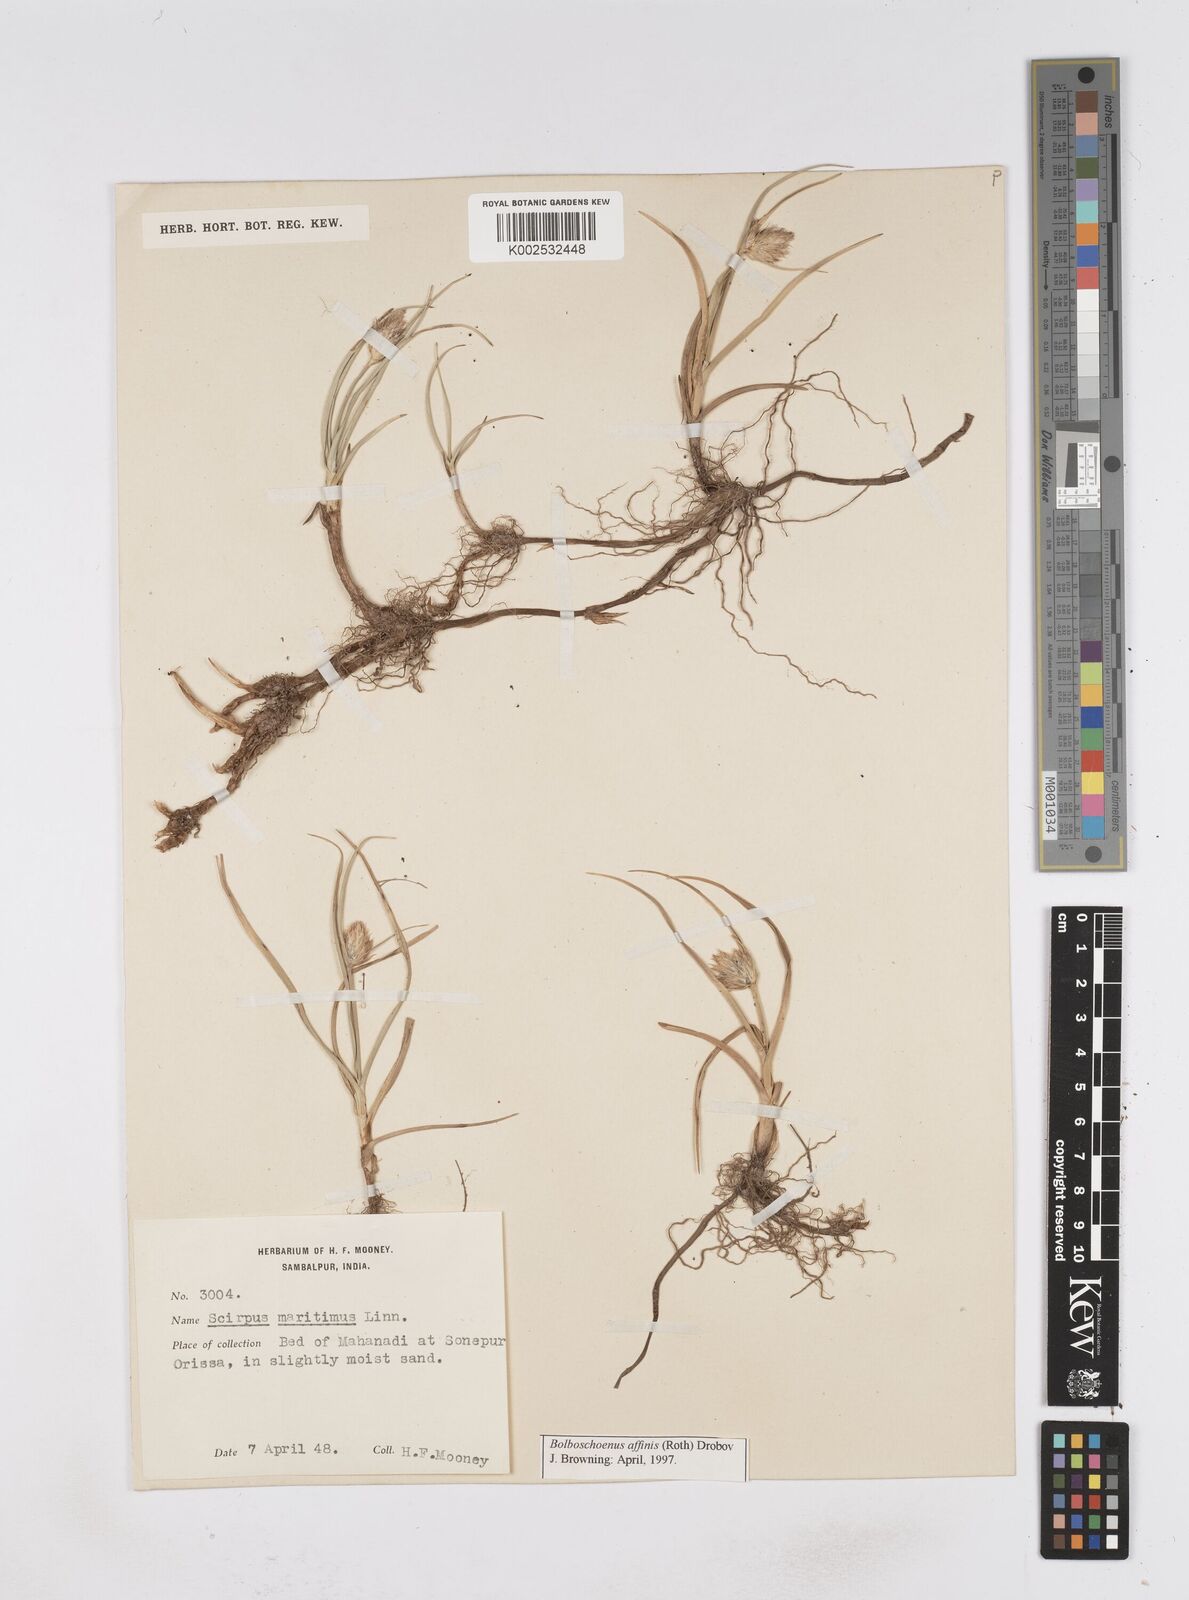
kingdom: Plantae
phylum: Tracheophyta
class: Liliopsida
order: Poales
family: Cyperaceae
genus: Bolboschoenus
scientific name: Bolboschoenus maritimus
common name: Sea club-rush
